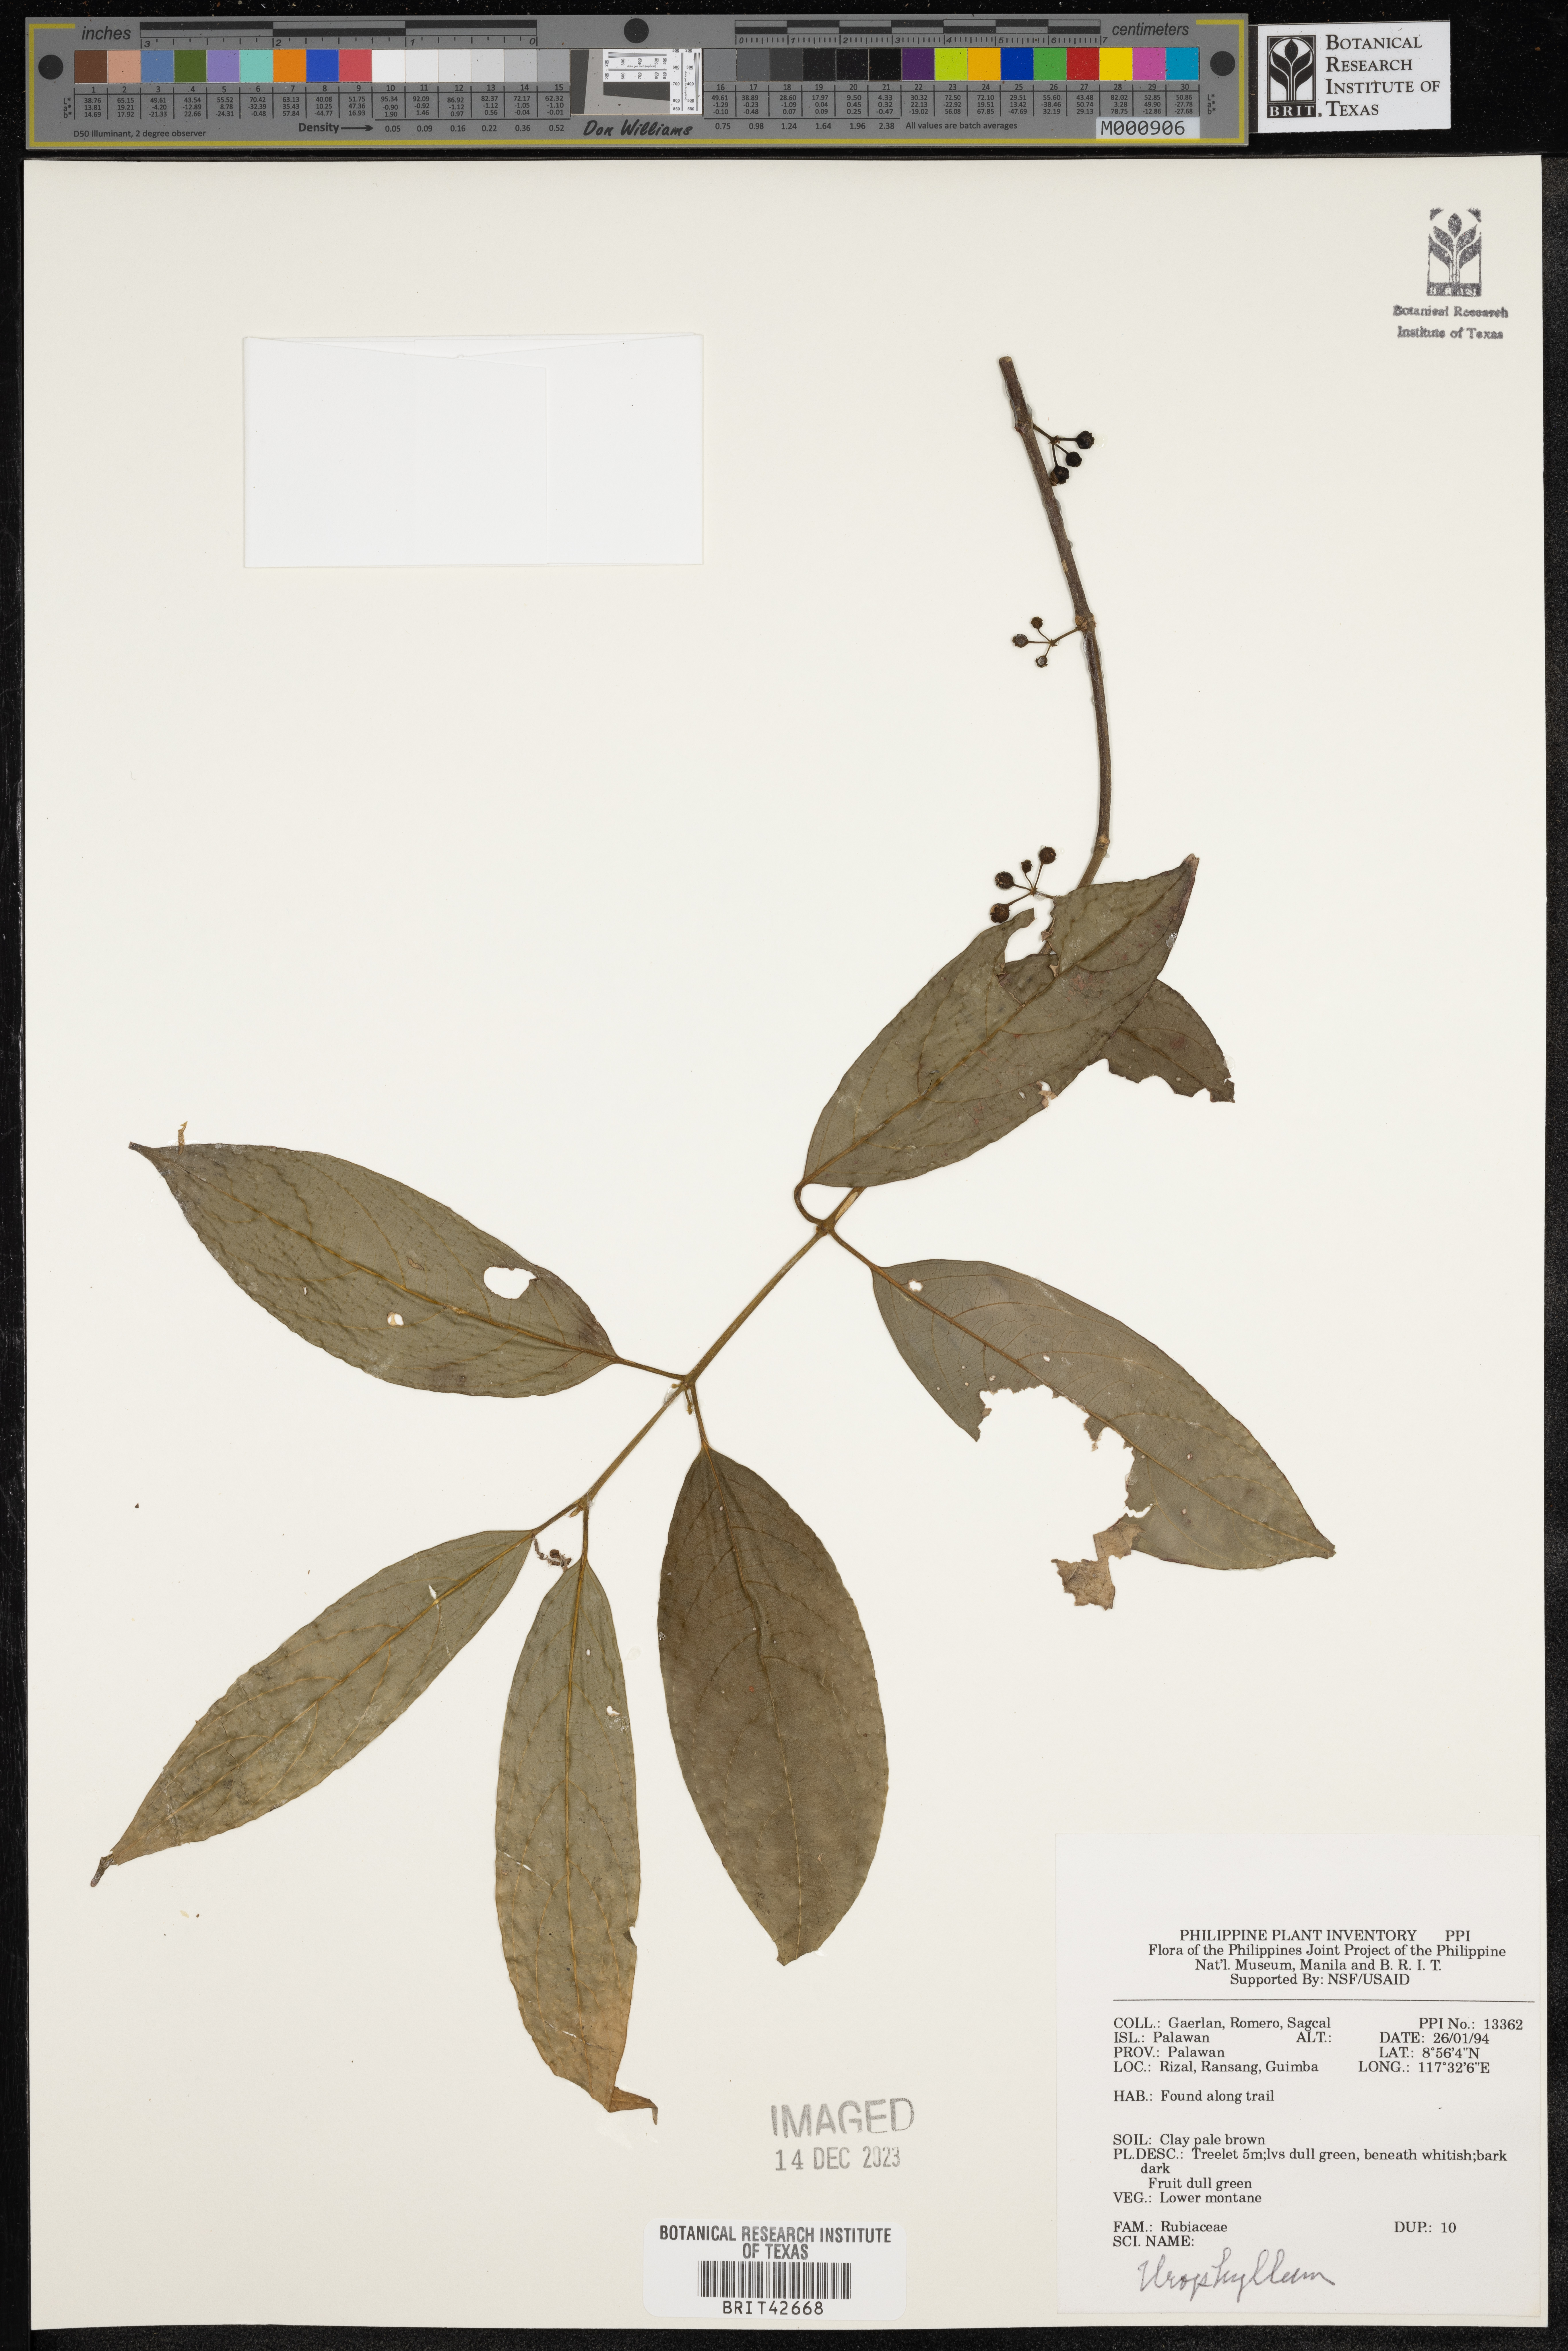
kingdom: Plantae
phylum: Tracheophyta
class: Magnoliopsida
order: Gentianales
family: Rubiaceae
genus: Urophyllum
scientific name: Urophyllum
